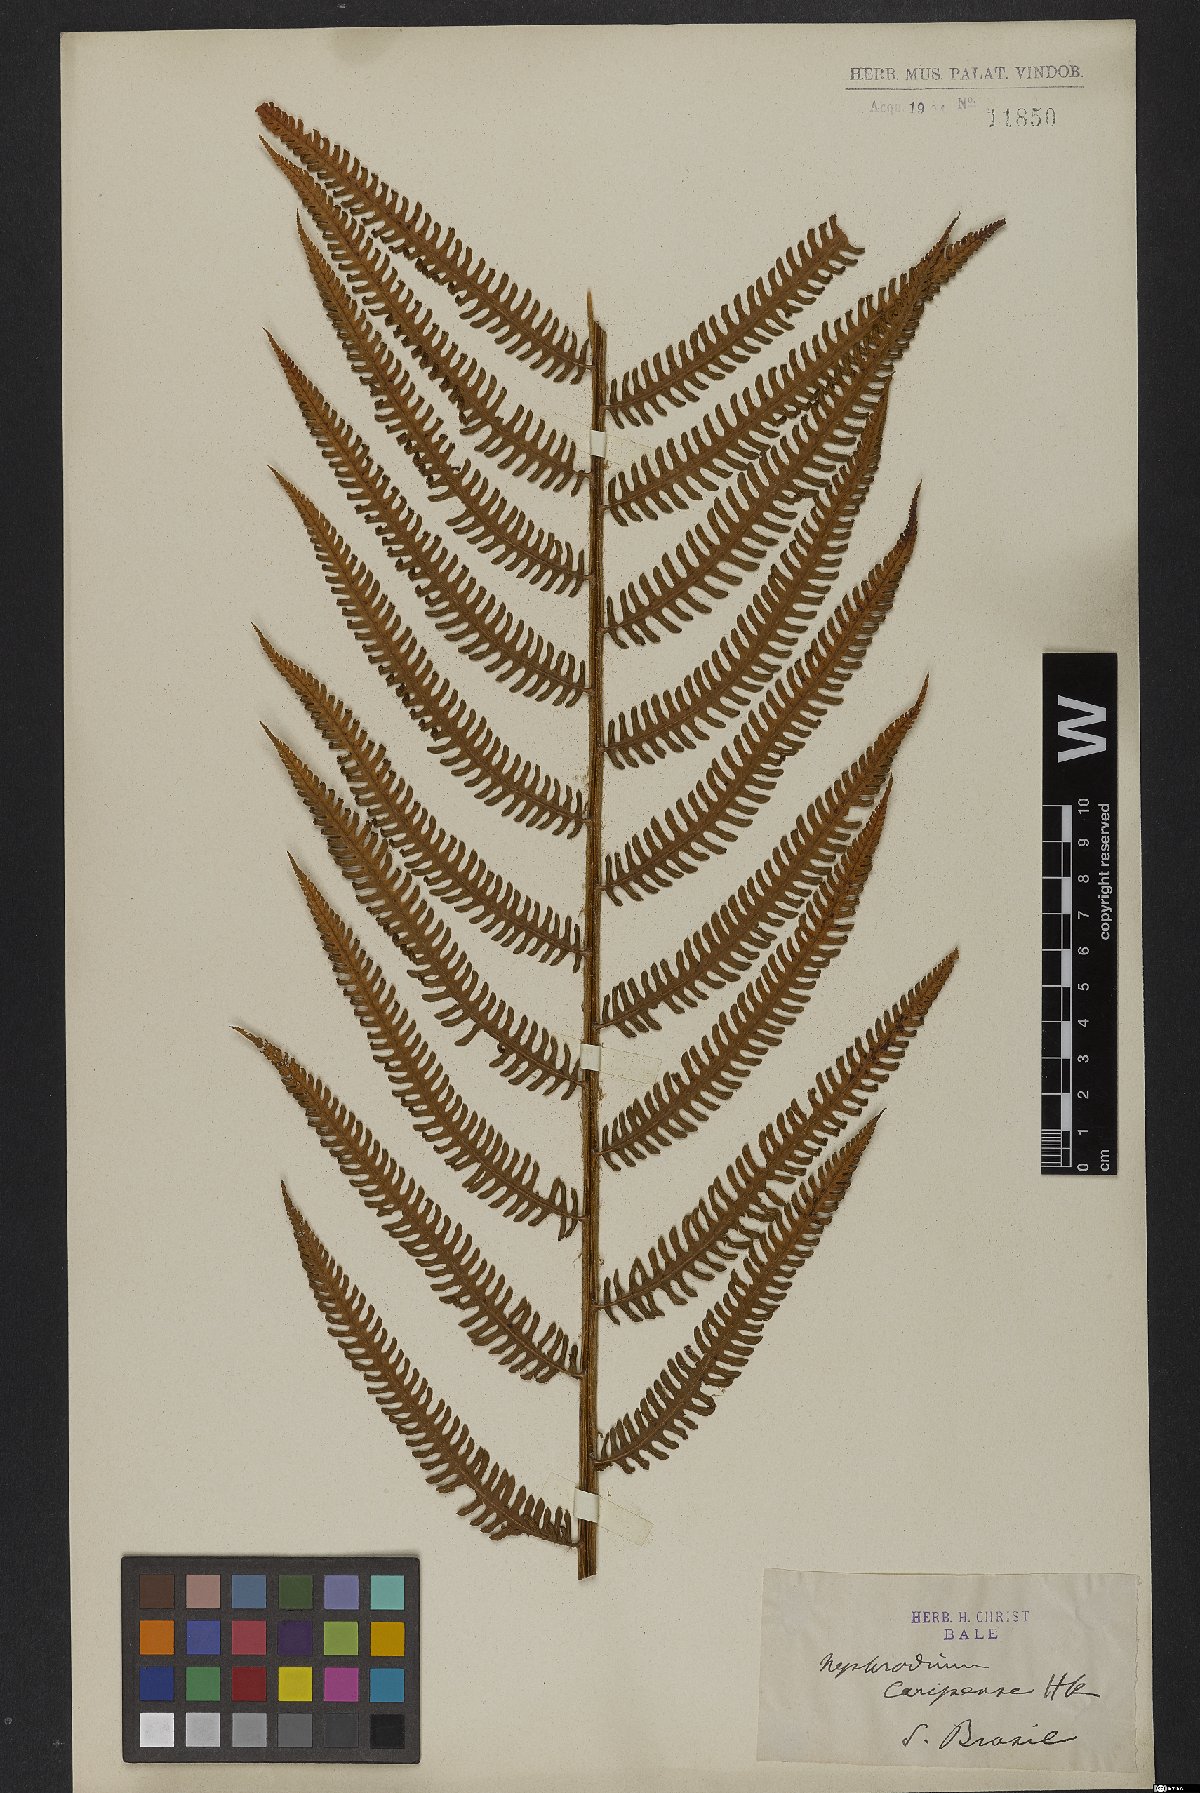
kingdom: Plantae
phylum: Tracheophyta
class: Polypodiopsida
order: Polypodiales
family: Dryopteridaceae
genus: Ctenitis
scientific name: Ctenitis submarginalis
